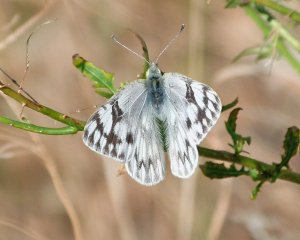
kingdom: Animalia
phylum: Arthropoda
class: Insecta
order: Lepidoptera
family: Pieridae
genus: Pontia
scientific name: Pontia occidentalis
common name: Western White
